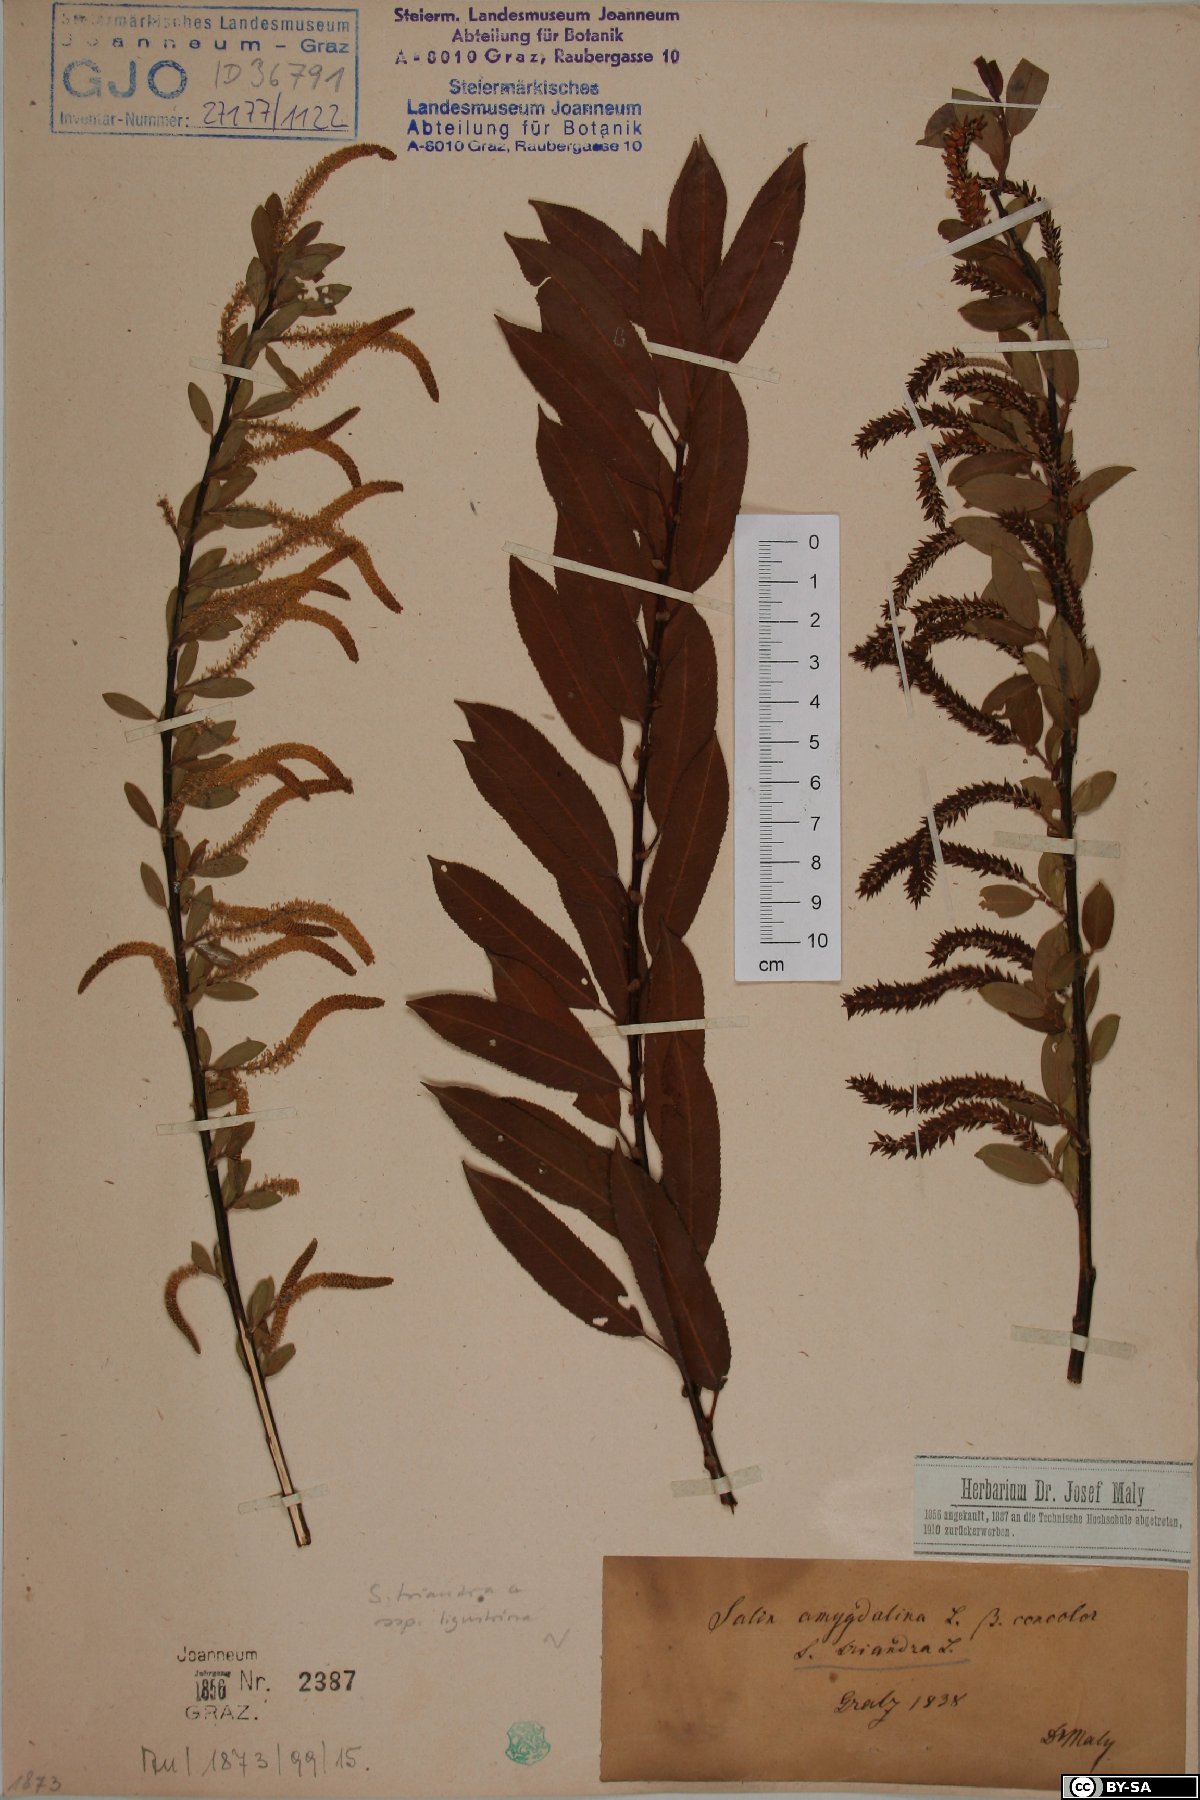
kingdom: Plantae
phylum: Tracheophyta
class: Magnoliopsida
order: Malpighiales
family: Salicaceae
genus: Salix
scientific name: Salix triandra
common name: Almond willow
